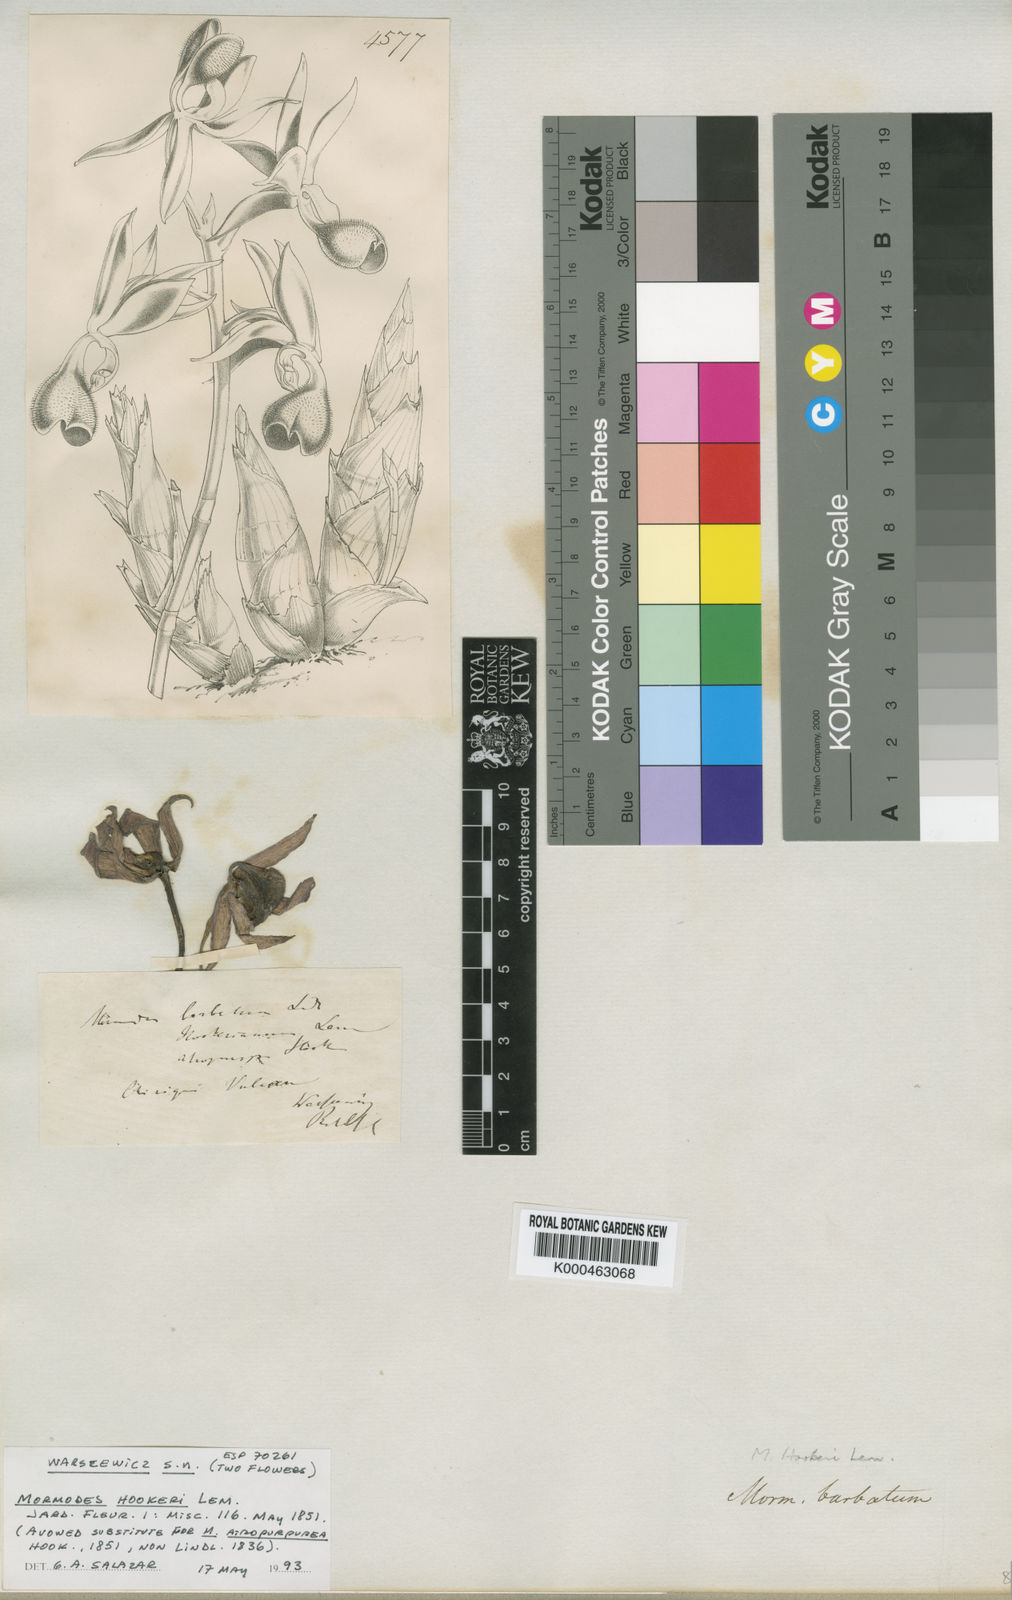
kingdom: Plantae
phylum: Tracheophyta
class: Liliopsida
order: Asparagales
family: Orchidaceae
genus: Mormodes
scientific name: Mormodes hookeri
